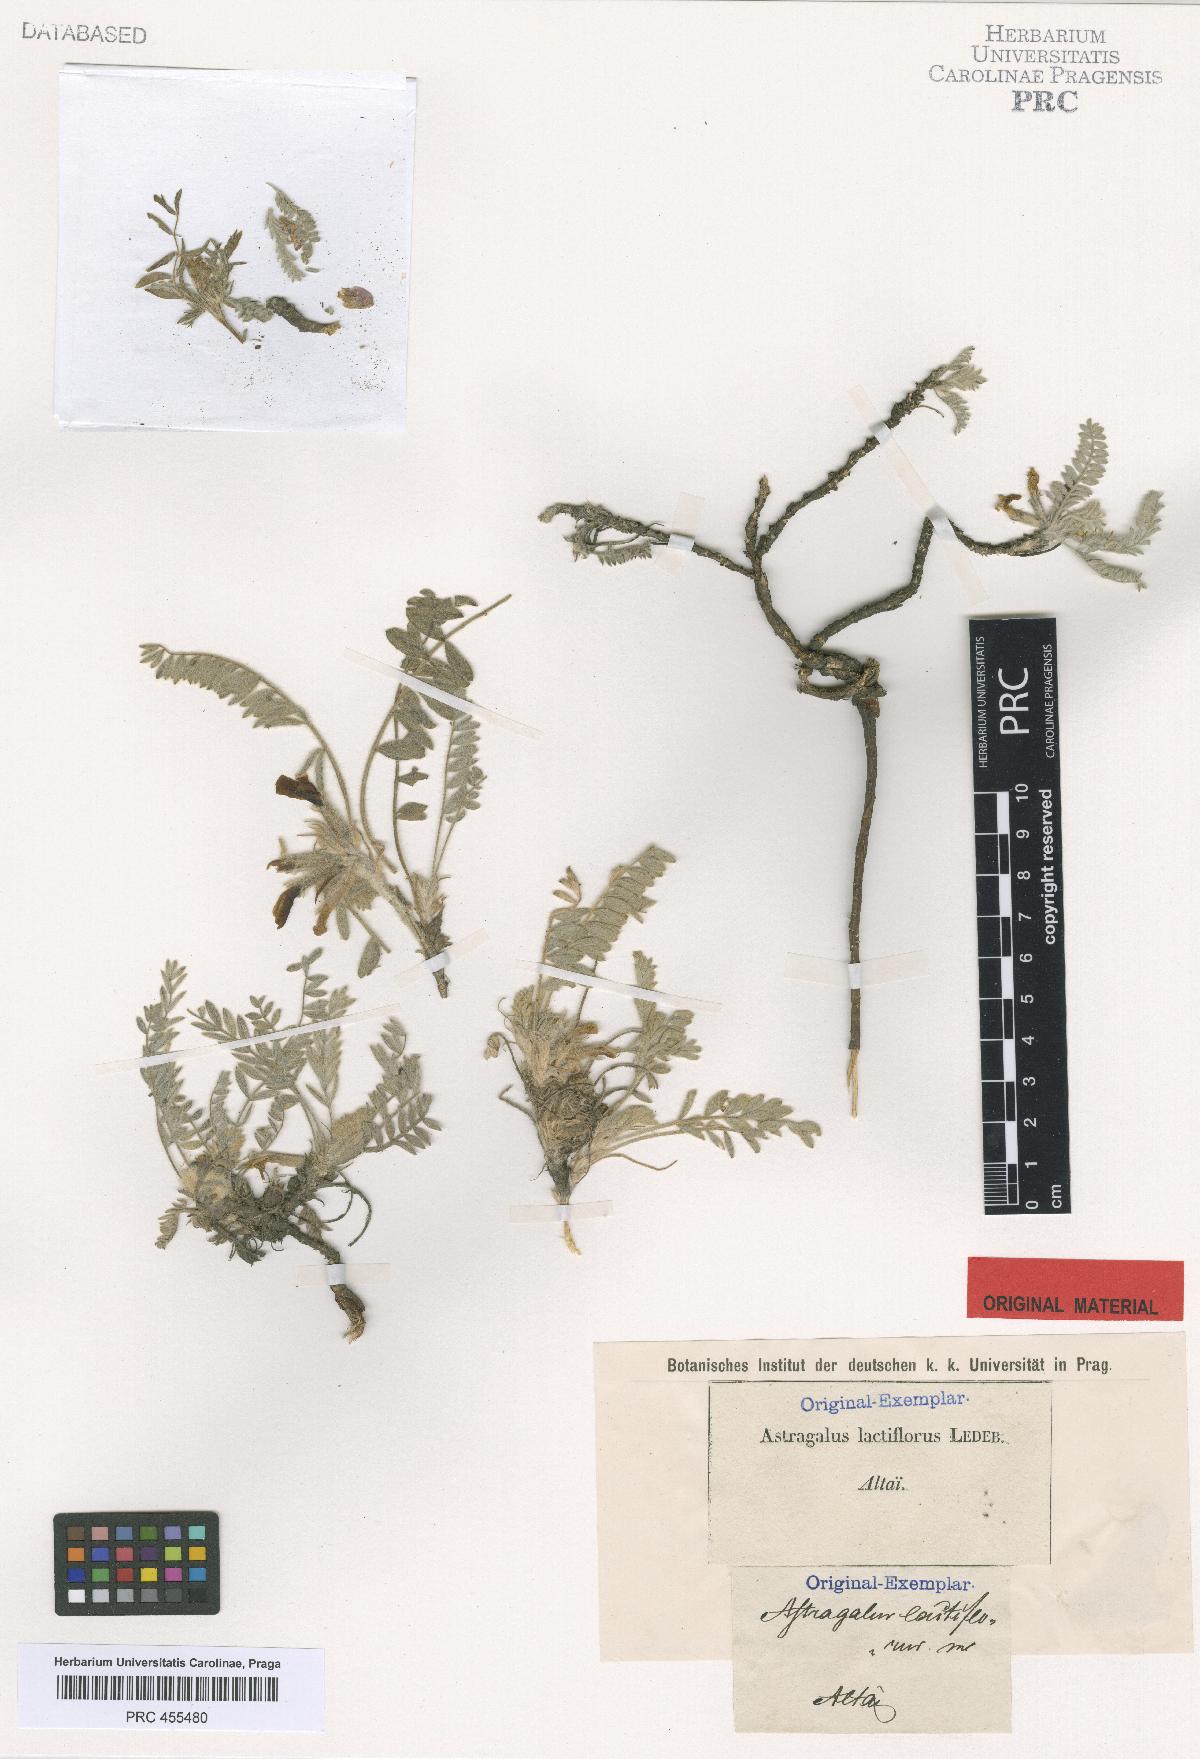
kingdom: Plantae
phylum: Tracheophyta
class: Magnoliopsida
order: Fabales
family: Fabaceae
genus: Astragalus
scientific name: Astragalus testiculatus
